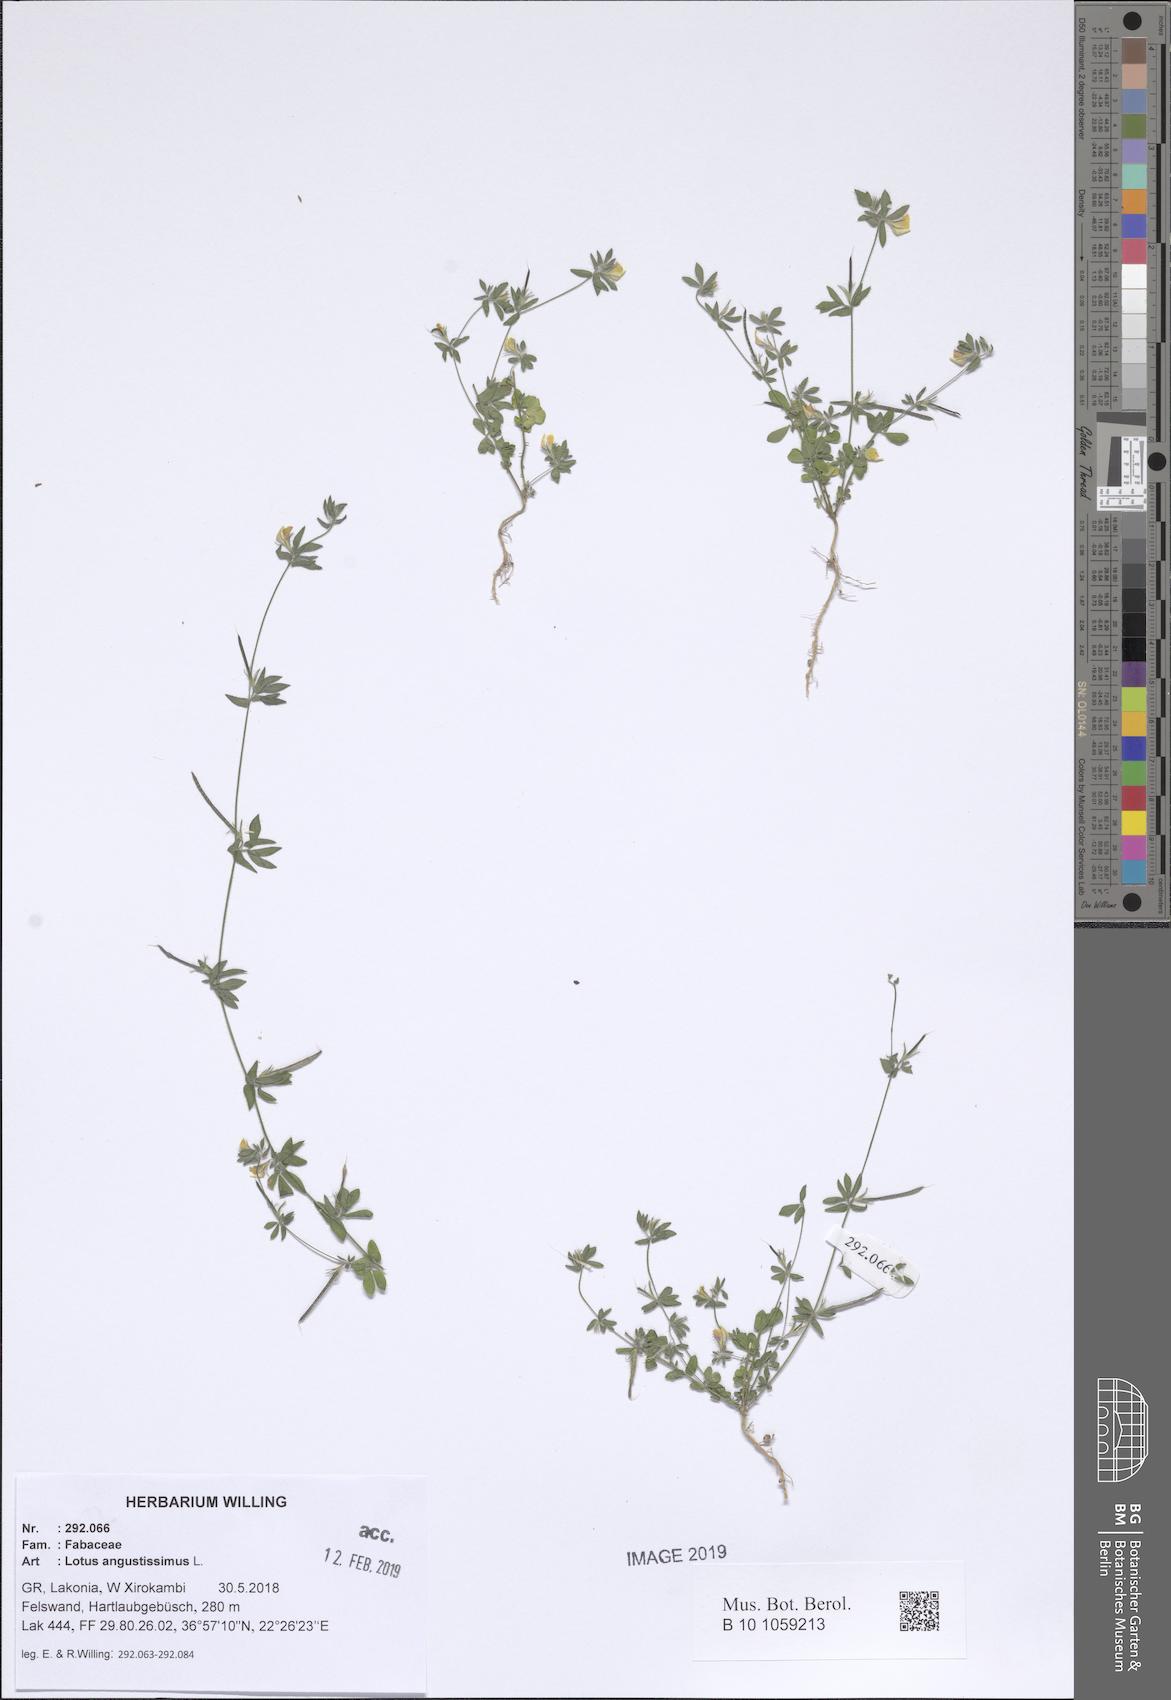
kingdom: Plantae
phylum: Tracheophyta
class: Magnoliopsida
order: Fabales
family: Fabaceae
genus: Lotus
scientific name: Lotus angustissimus
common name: Slender bird's-foot trefoil
